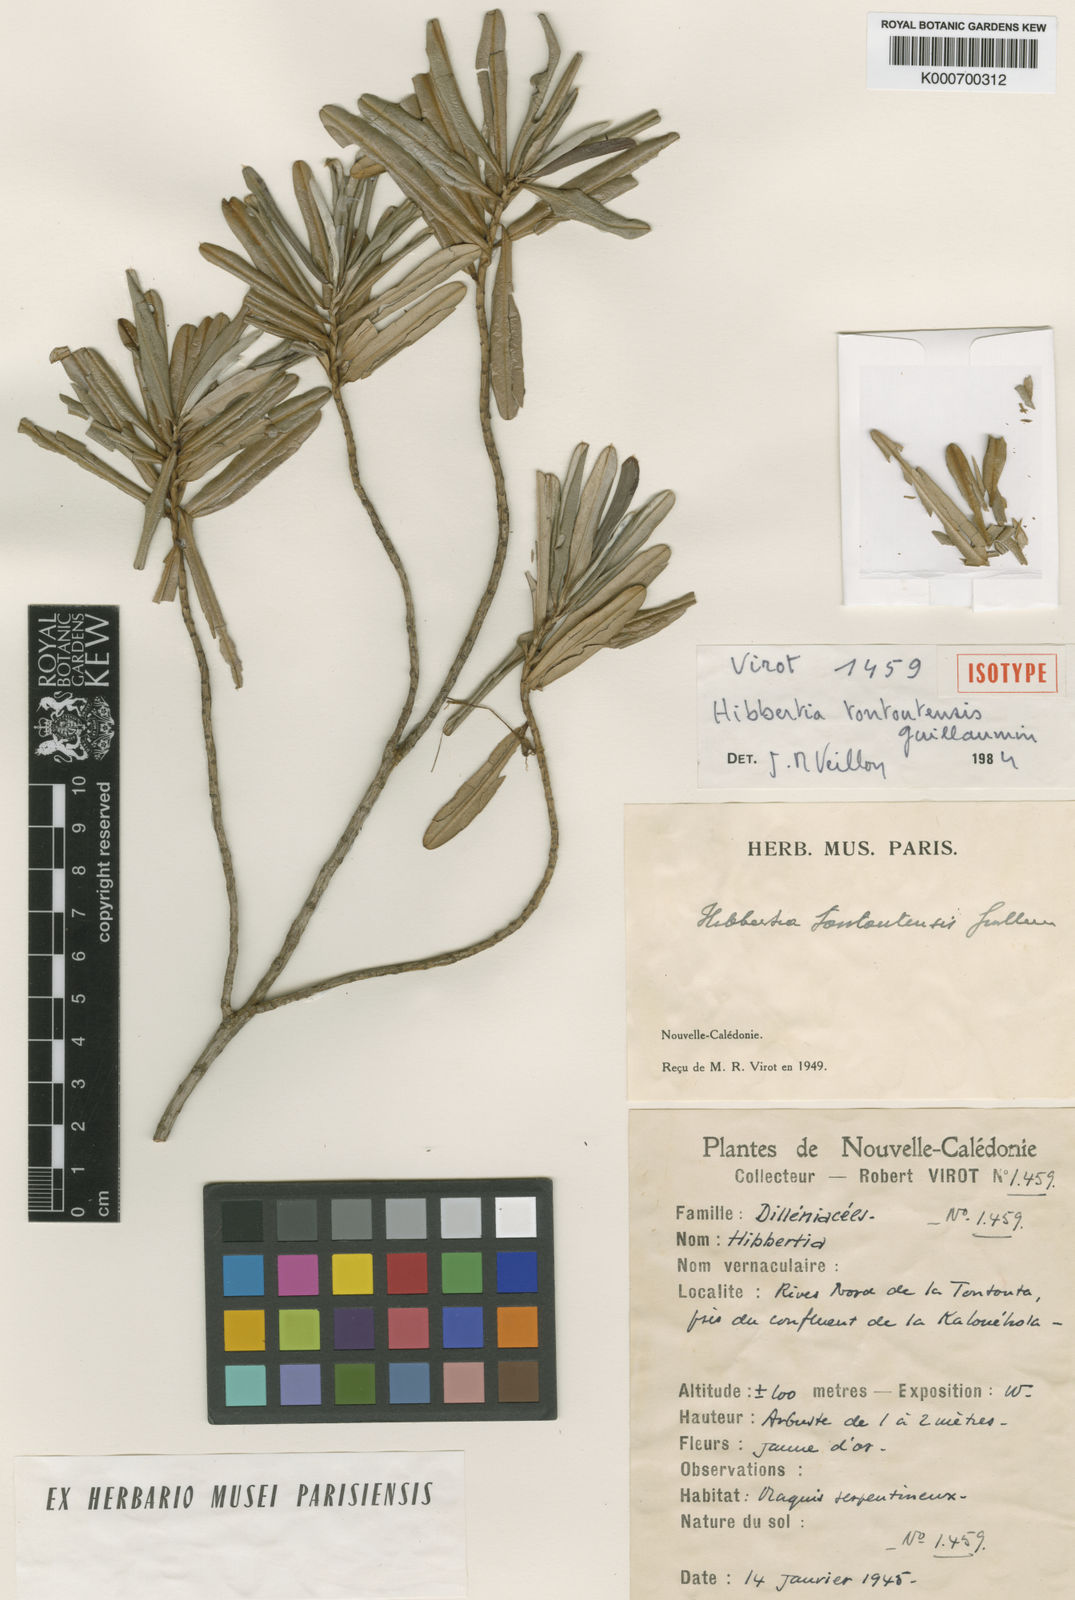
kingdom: Plantae
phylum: Tracheophyta
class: Magnoliopsida
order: Dilleniales
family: Dilleniaceae
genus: Hibbertia
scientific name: Hibbertia tontoutensis
